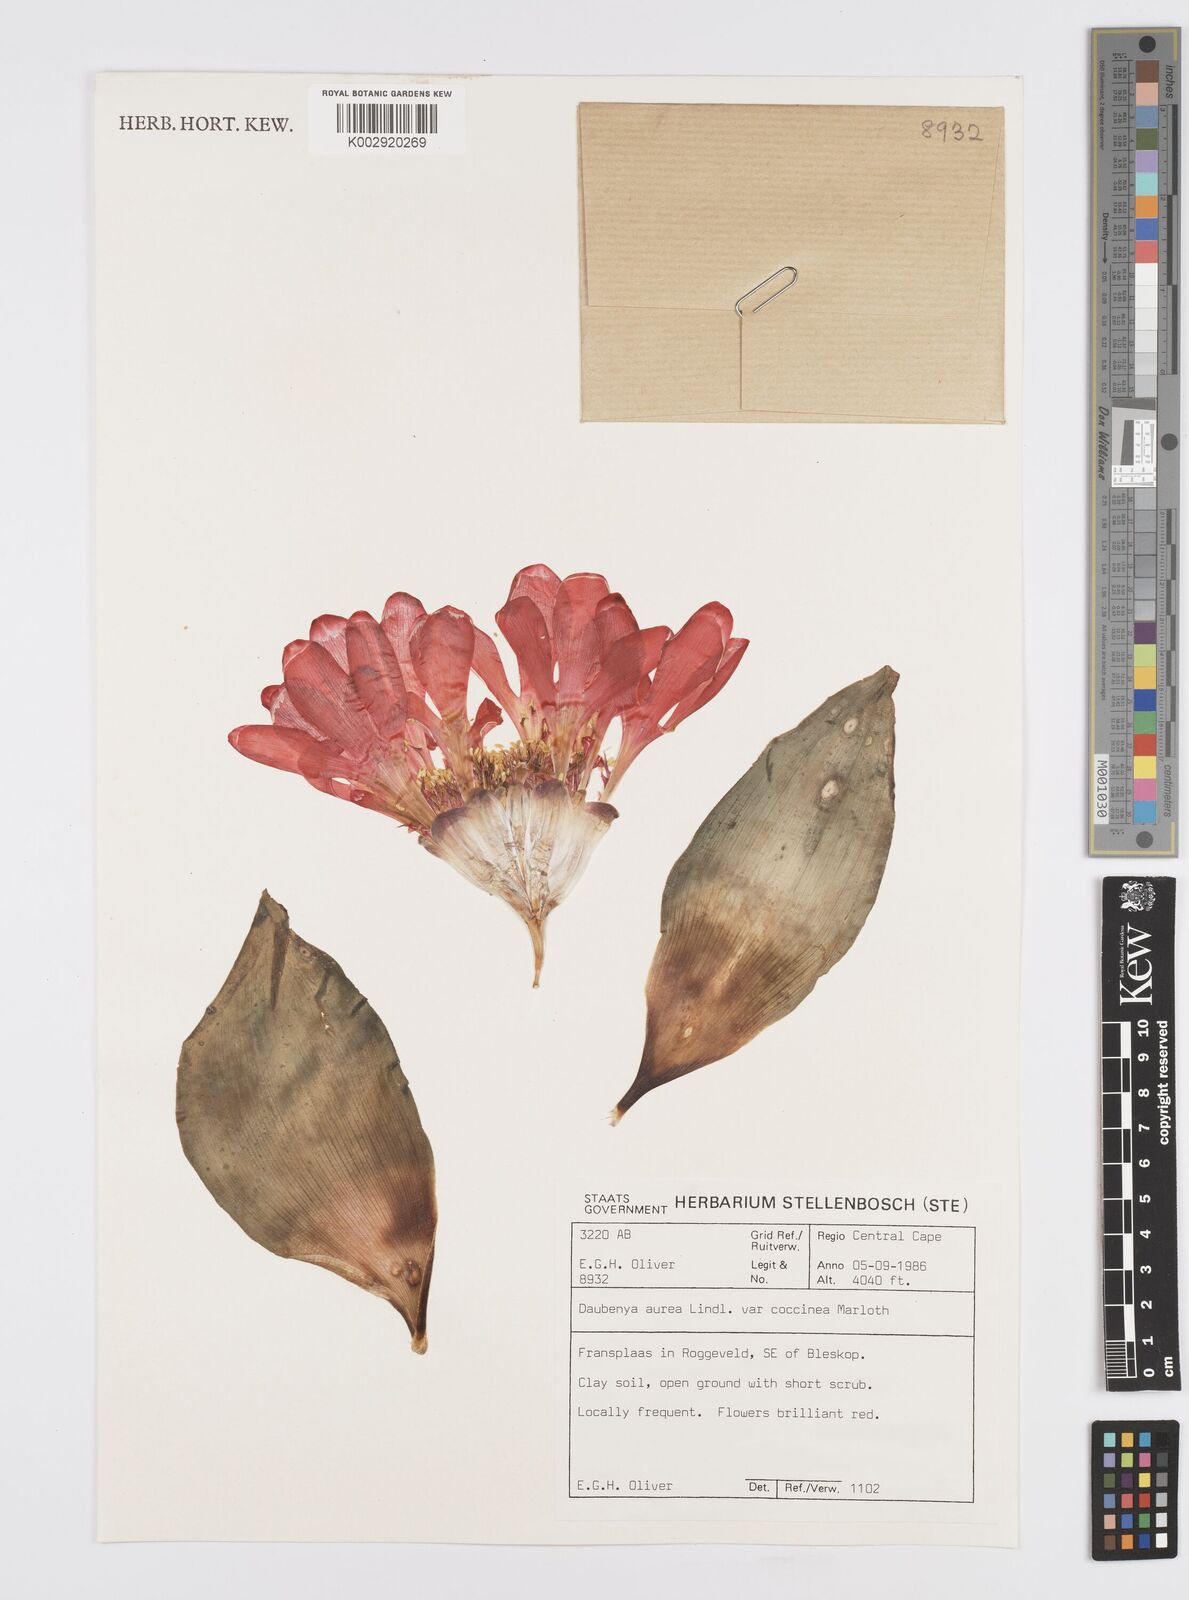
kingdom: Plantae
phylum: Tracheophyta
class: Liliopsida
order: Asparagales
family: Asparagaceae
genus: Daubenya
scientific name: Daubenya aurea
